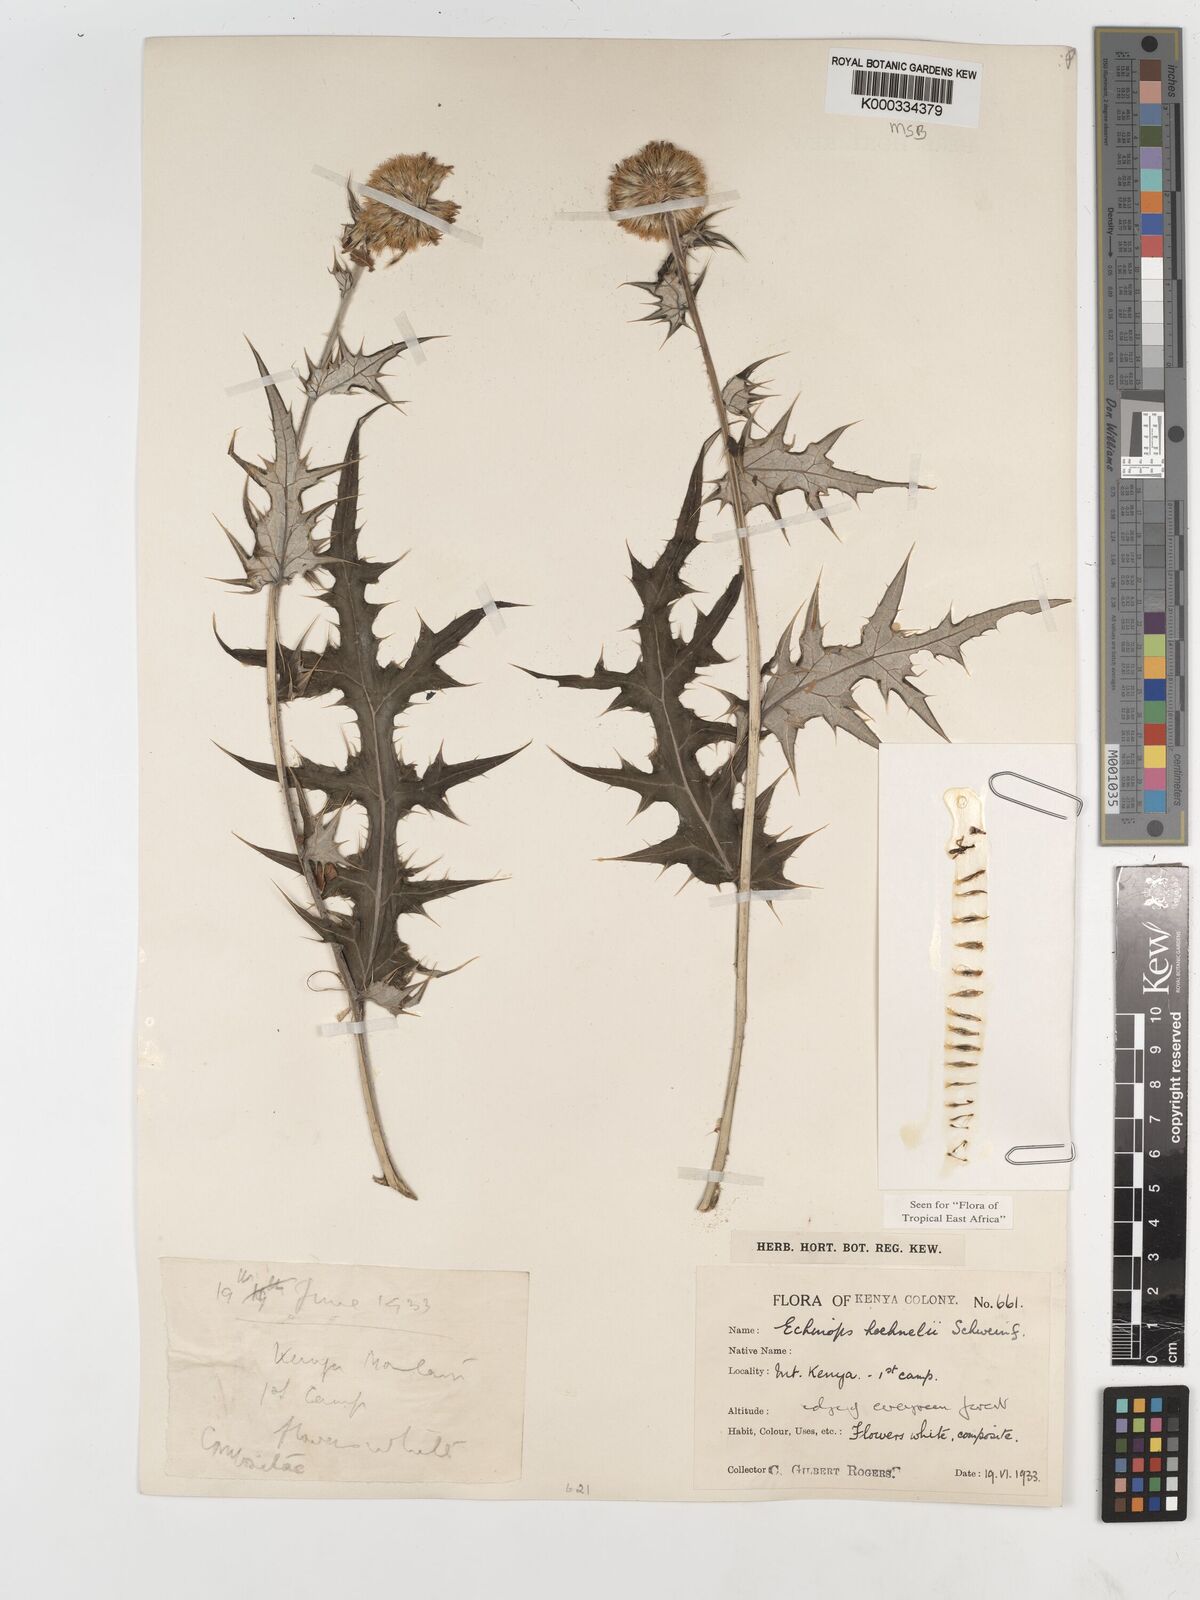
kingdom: Plantae
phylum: Tracheophyta
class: Magnoliopsida
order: Asterales
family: Asteraceae
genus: Echinops
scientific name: Echinops hoehnelii
